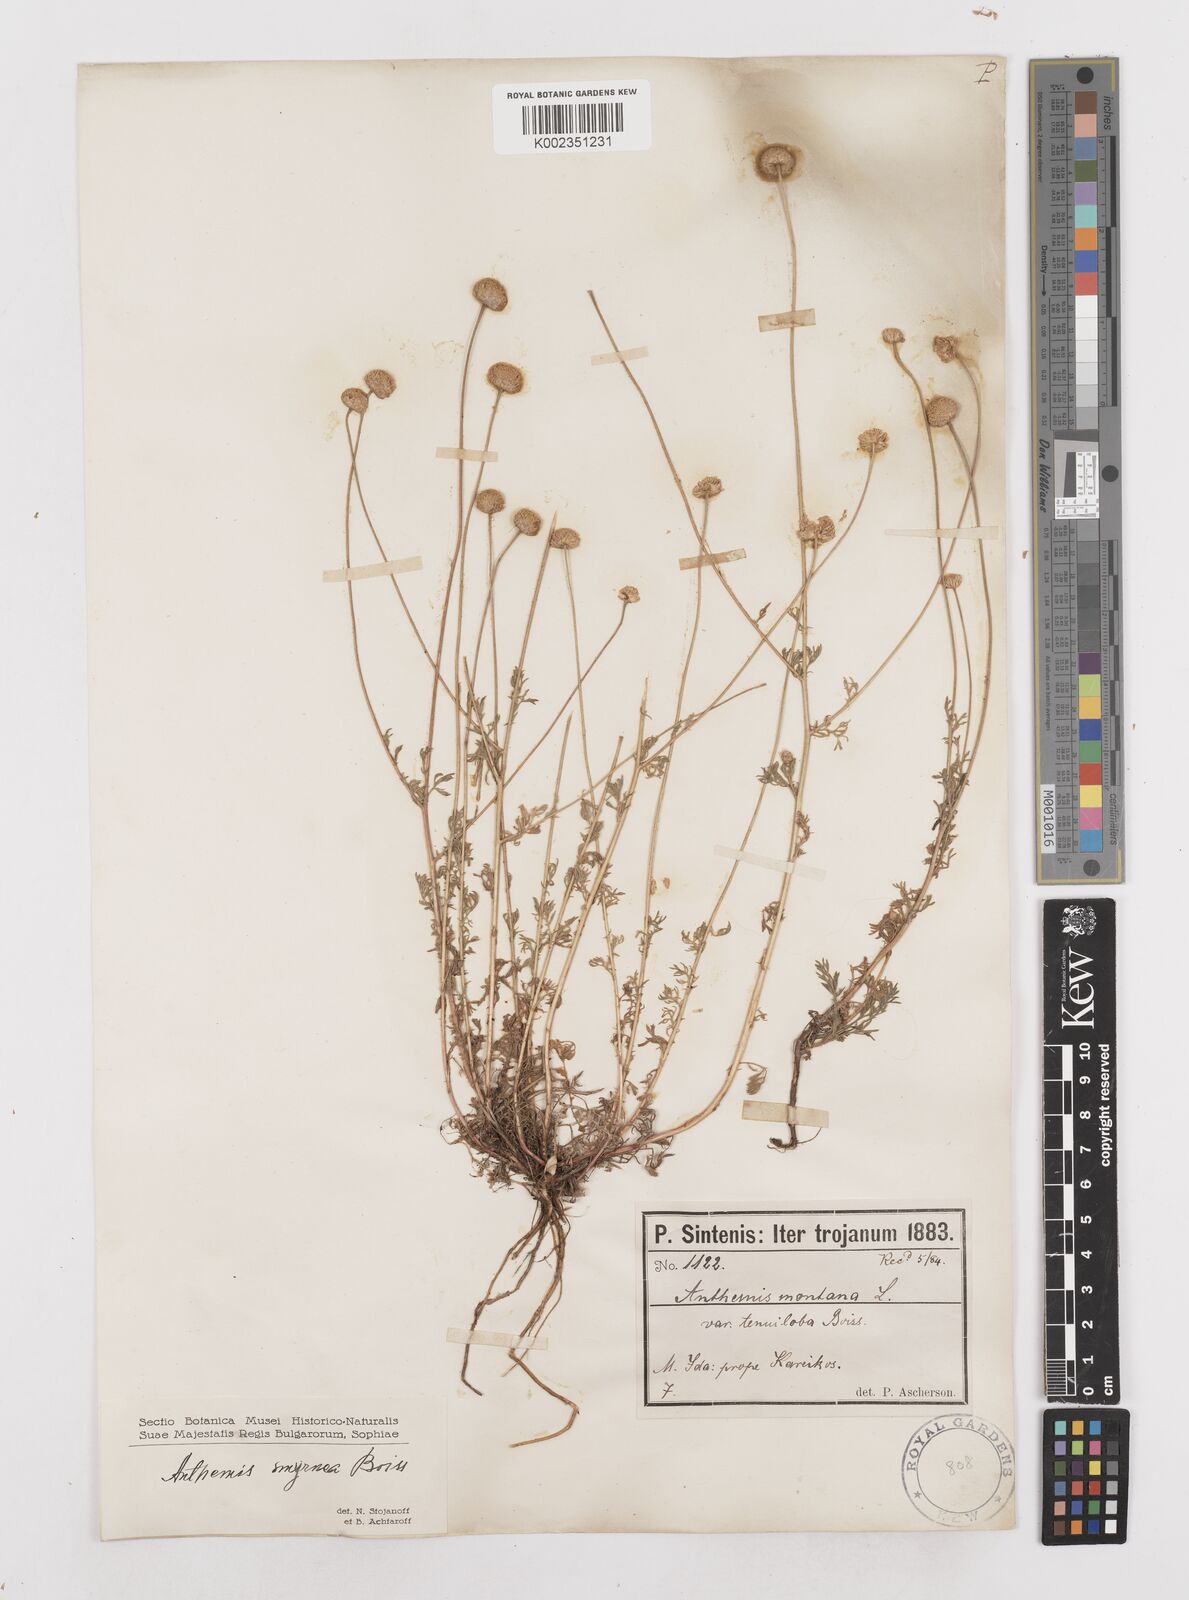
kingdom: Plantae
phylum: Tracheophyta
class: Magnoliopsida
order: Asterales
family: Asteraceae
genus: Anthemis
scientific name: Anthemis cretica
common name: Mountain dog-daisy
